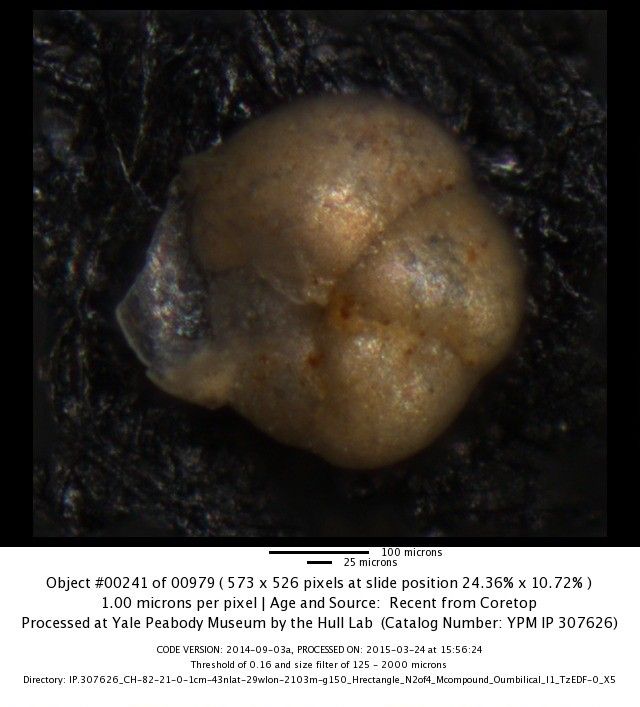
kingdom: Chromista
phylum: Foraminifera
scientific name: Foraminifera
